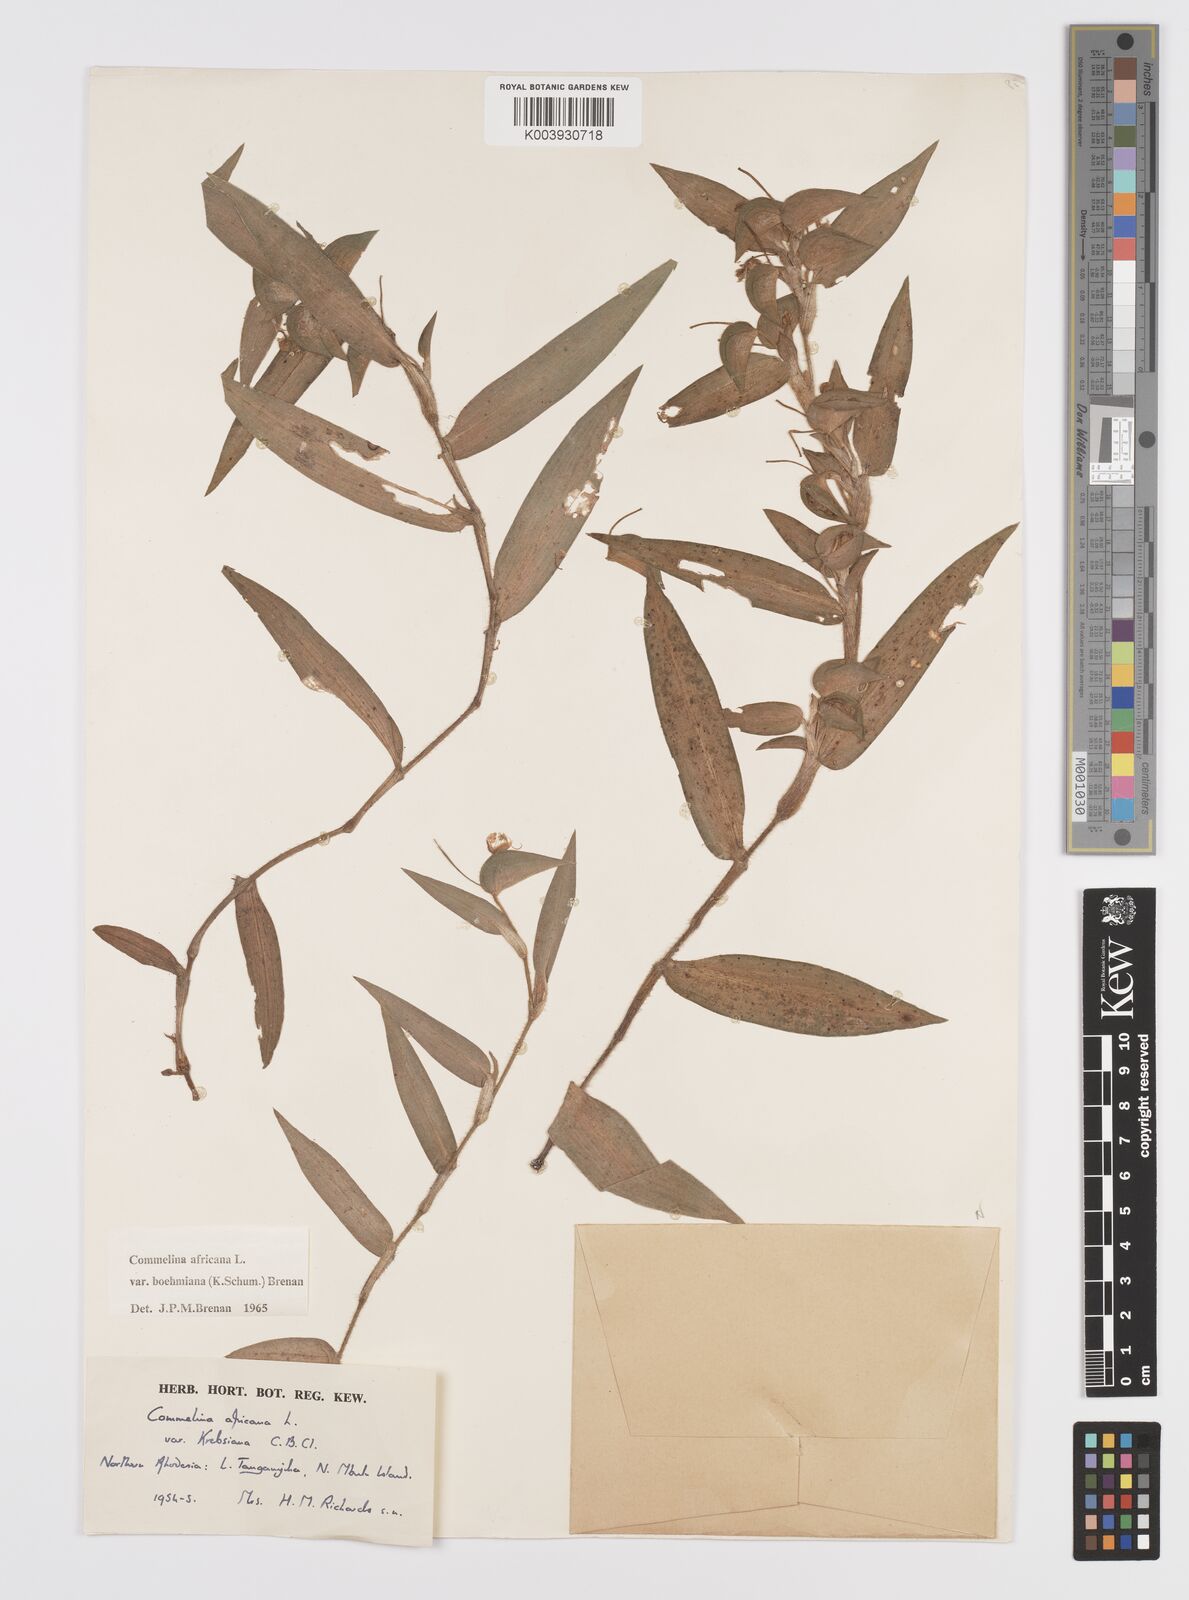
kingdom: Plantae
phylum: Tracheophyta
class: Liliopsida
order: Commelinales
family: Commelinaceae
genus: Commelina
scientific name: Commelina africana
